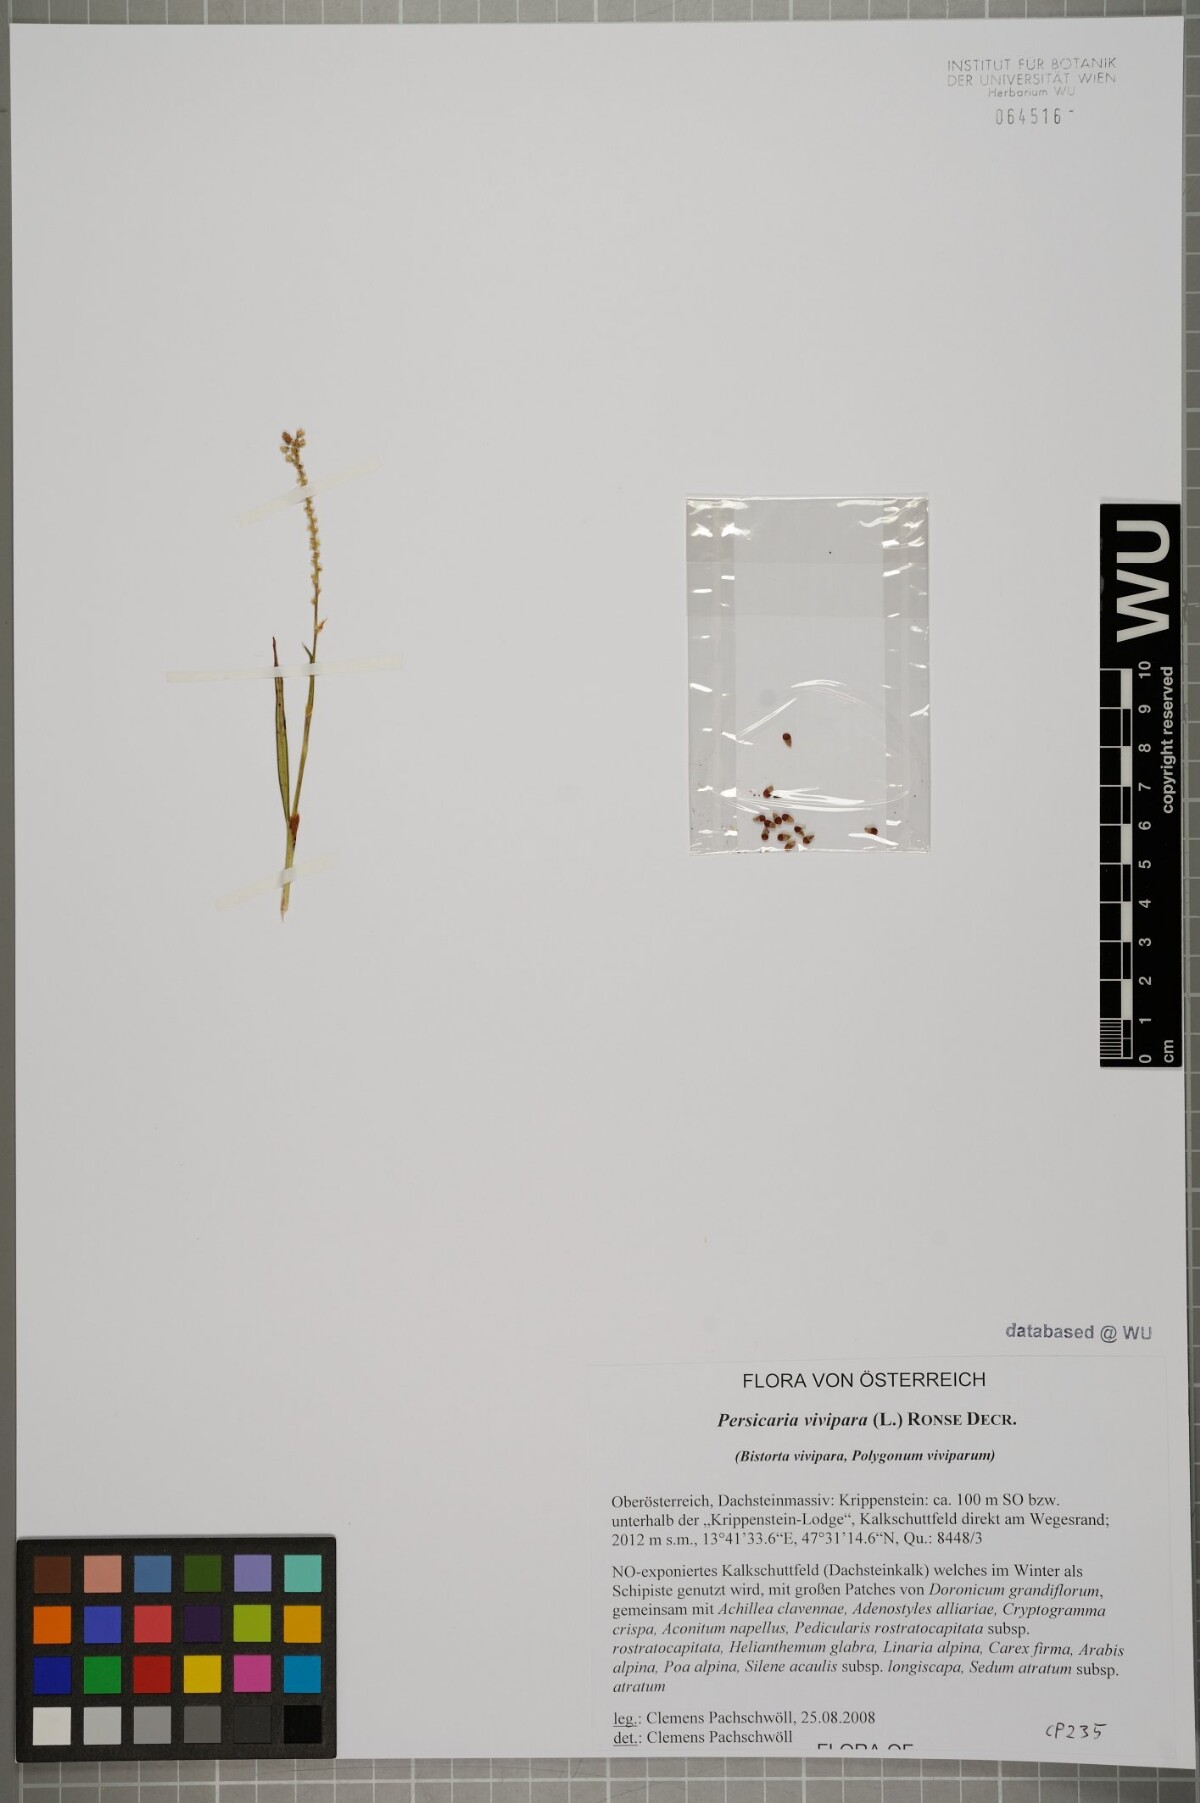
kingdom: Plantae
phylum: Tracheophyta
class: Magnoliopsida
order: Caryophyllales
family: Polygonaceae
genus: Bistorta
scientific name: Bistorta vivipara
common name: Alpine bistort
